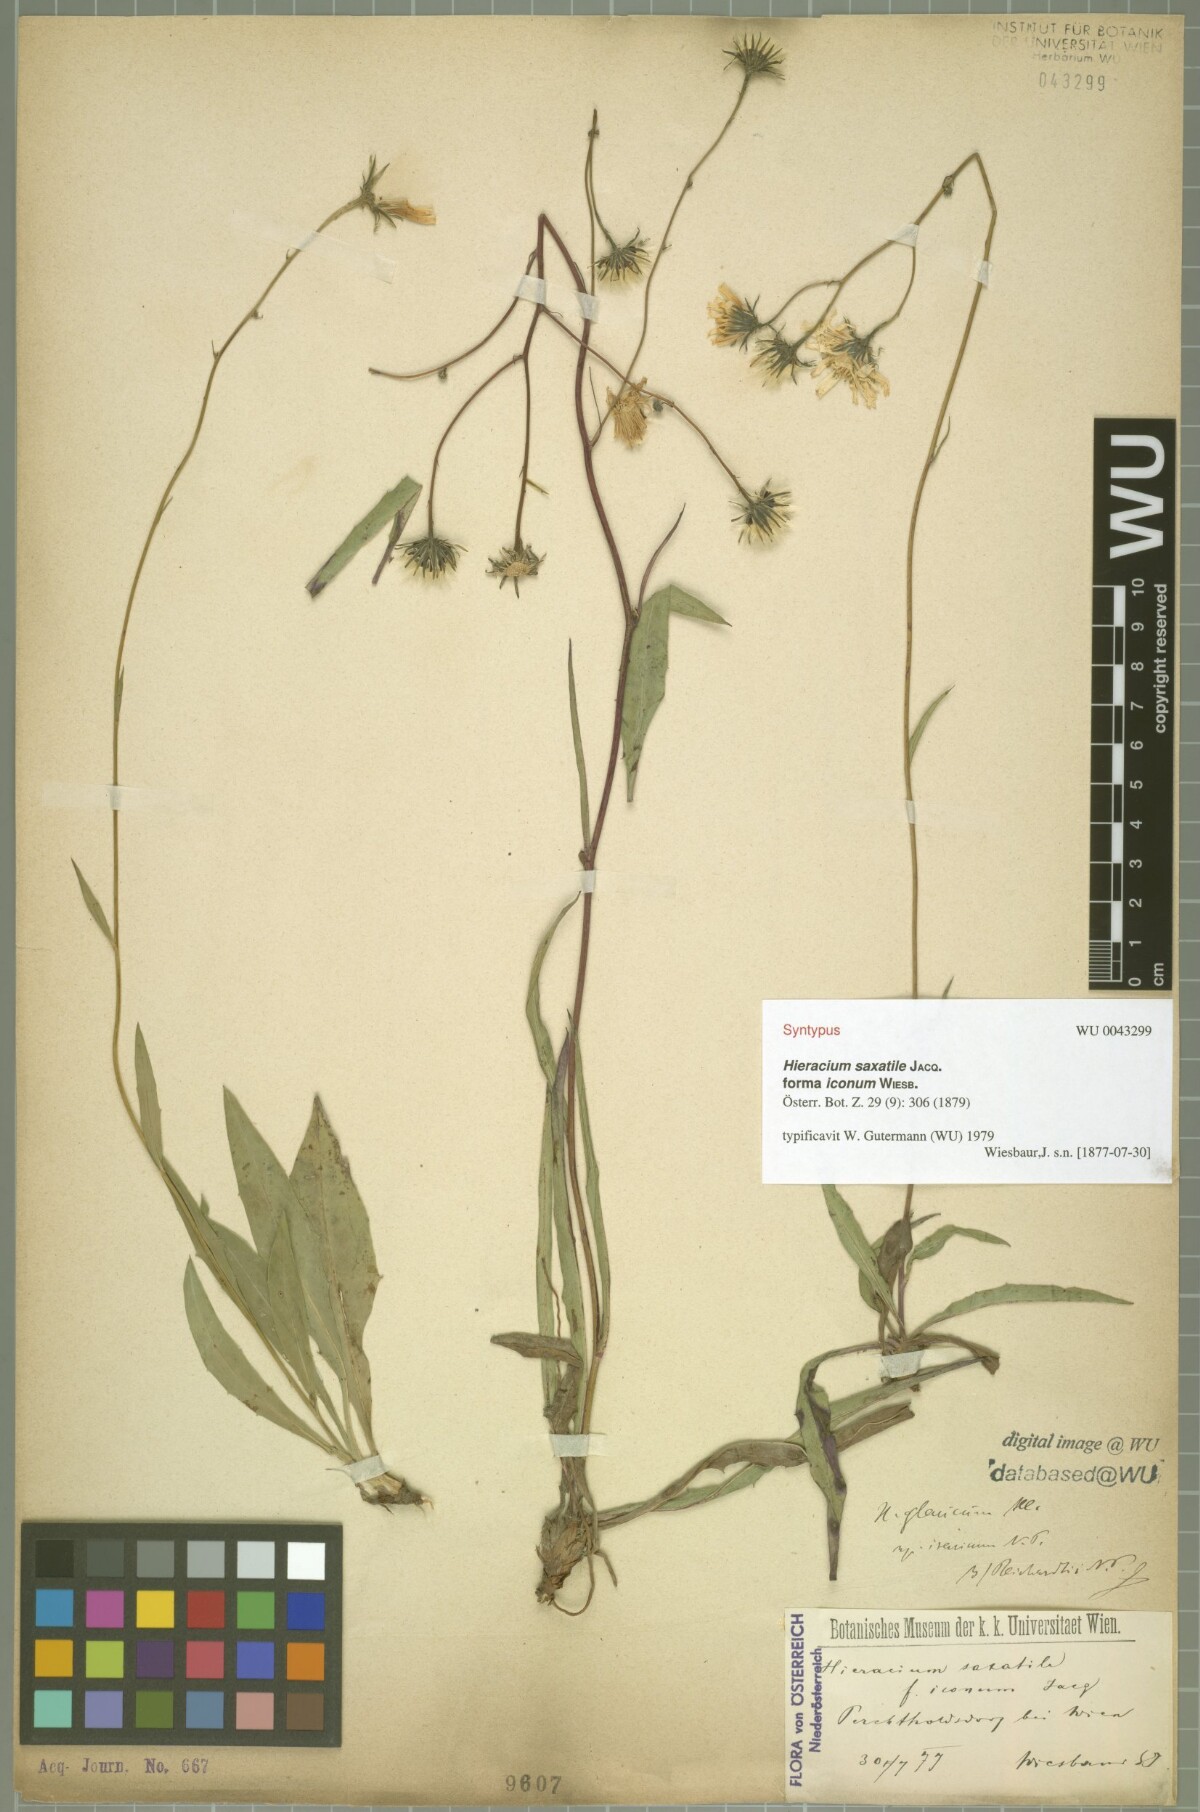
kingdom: Plantae
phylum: Tracheophyta
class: Magnoliopsida
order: Asterales
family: Asteraceae
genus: Hieracium
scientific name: Hieracium saxatile
